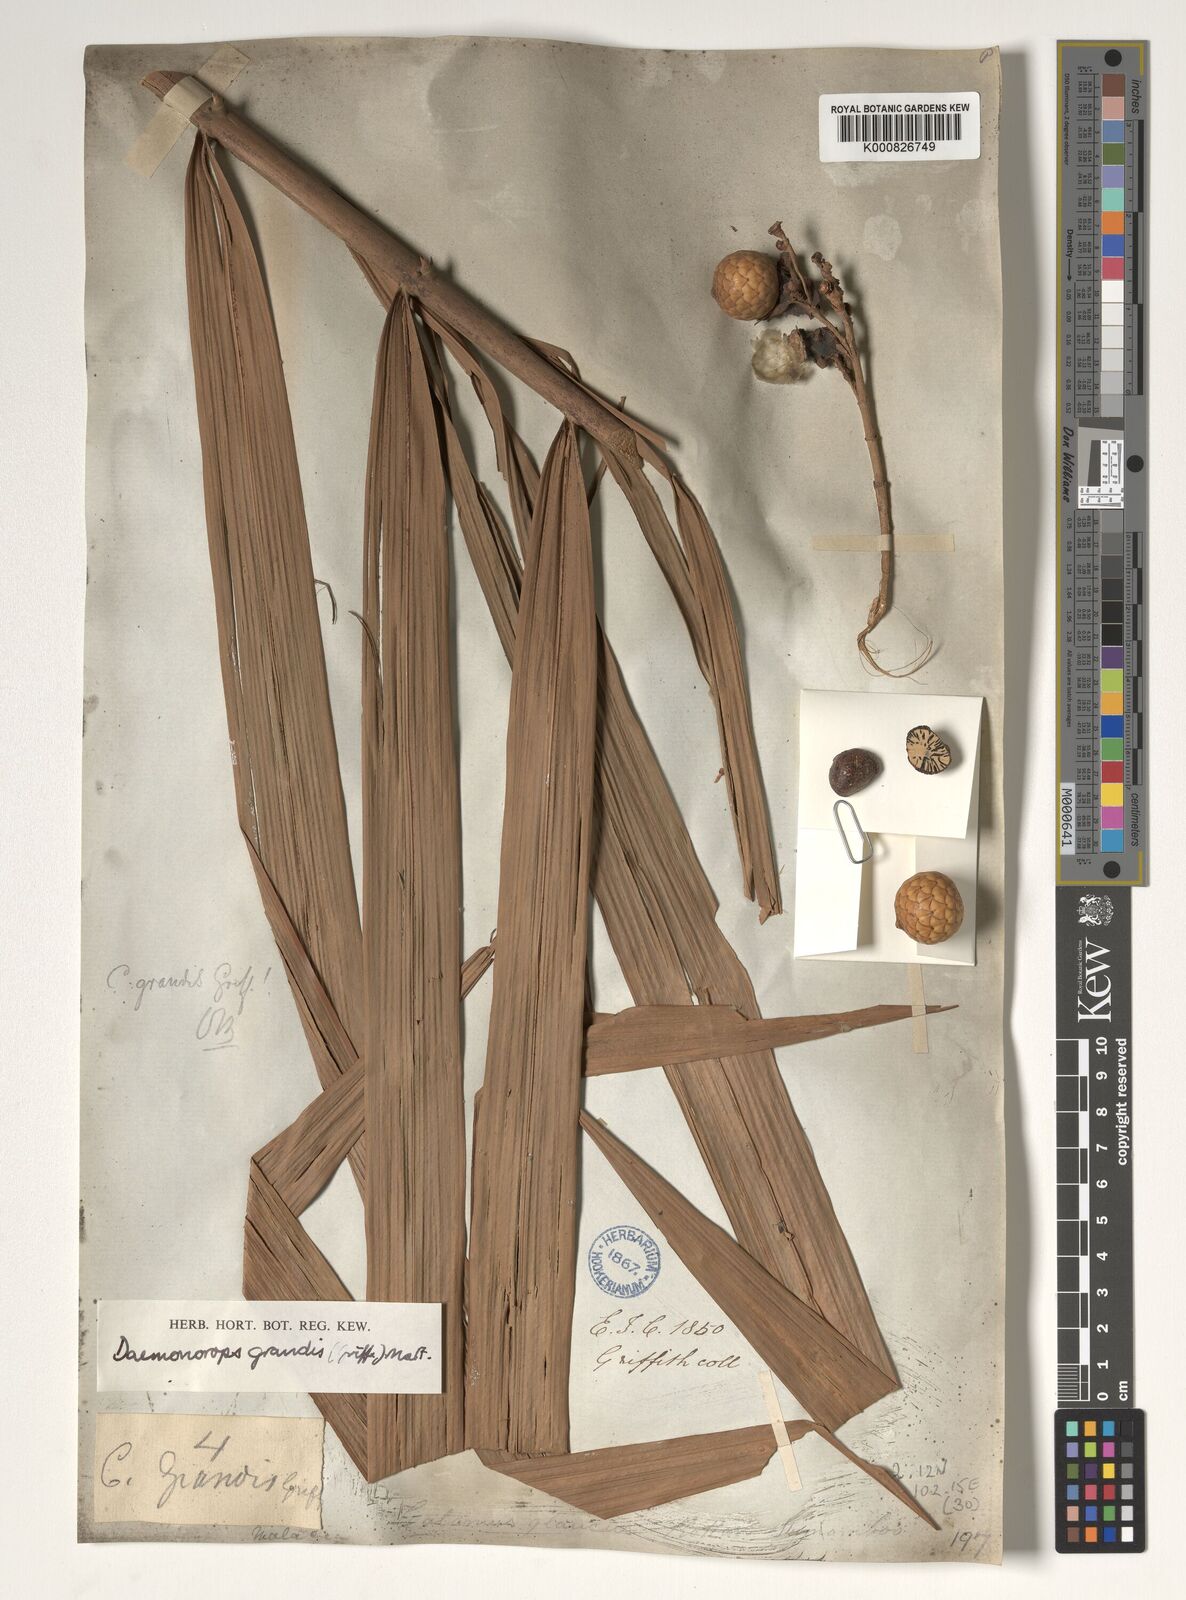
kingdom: Plantae
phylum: Tracheophyta
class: Liliopsida
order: Arecales
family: Arecaceae
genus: Calamus
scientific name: Calamus melanochaetes
